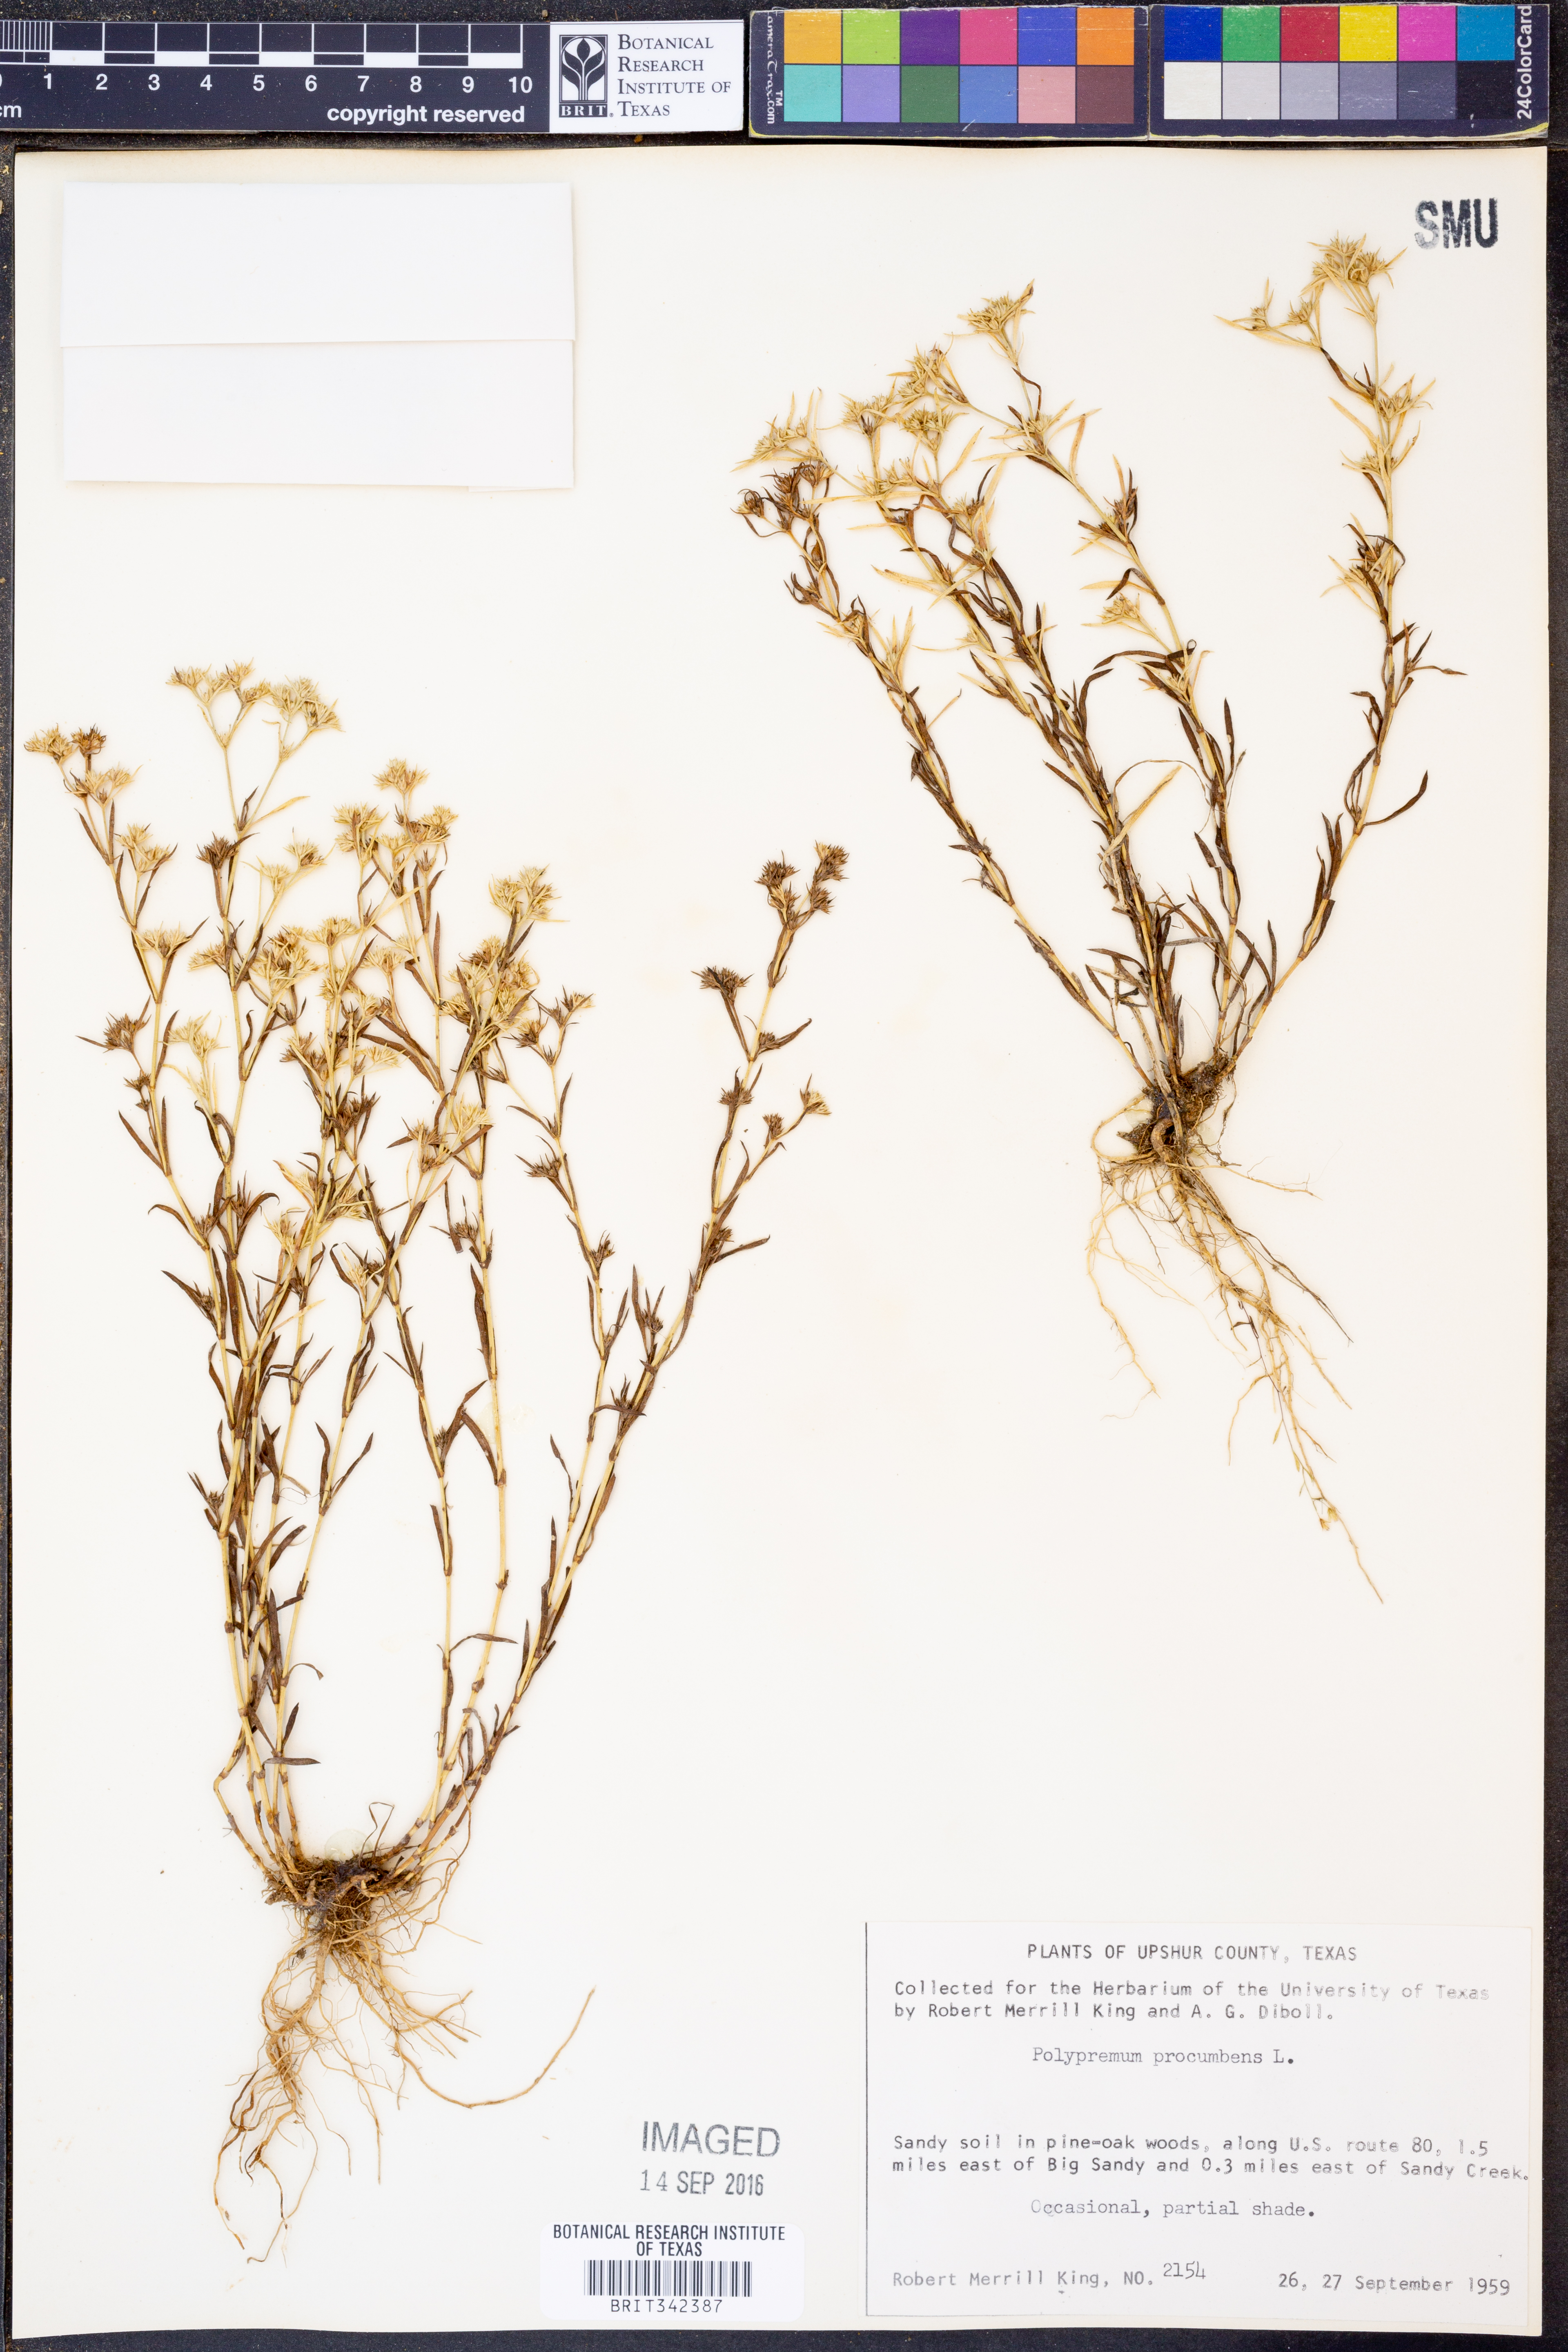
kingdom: Plantae
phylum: Tracheophyta
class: Magnoliopsida
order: Lamiales
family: Tetrachondraceae
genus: Polypremum
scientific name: Polypremum procumbens
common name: Juniper-leaf
